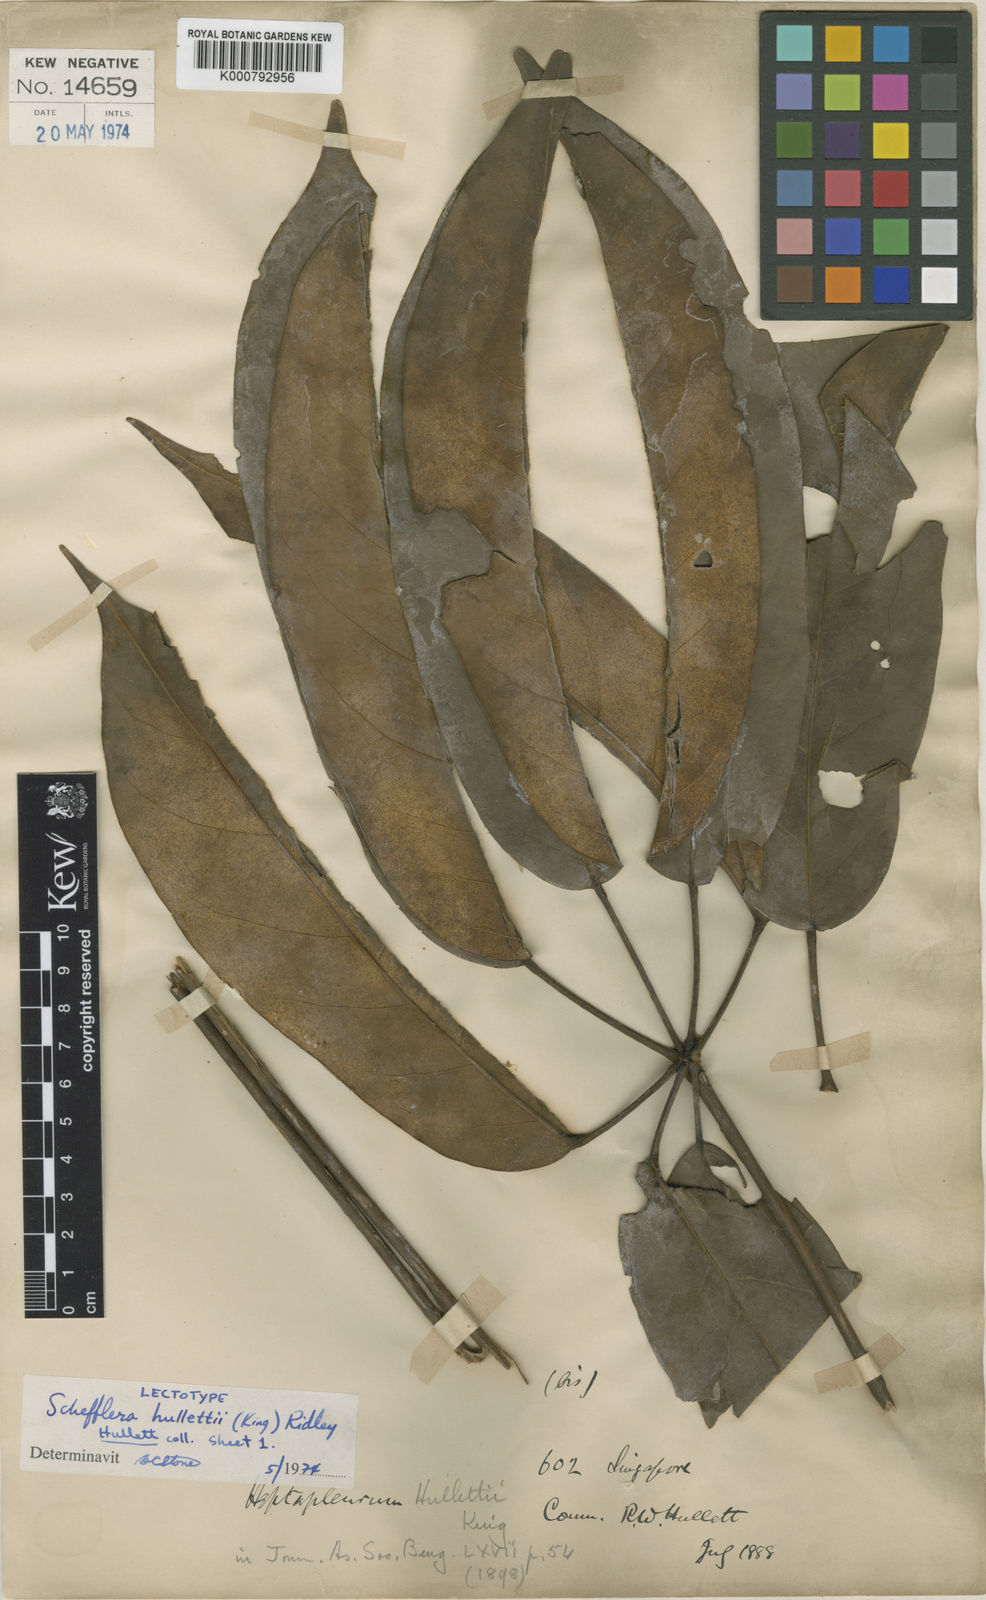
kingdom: Plantae
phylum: Tracheophyta
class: Magnoliopsida
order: Apiales
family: Araliaceae
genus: Heptapleurum
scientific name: Heptapleurum hullettii
